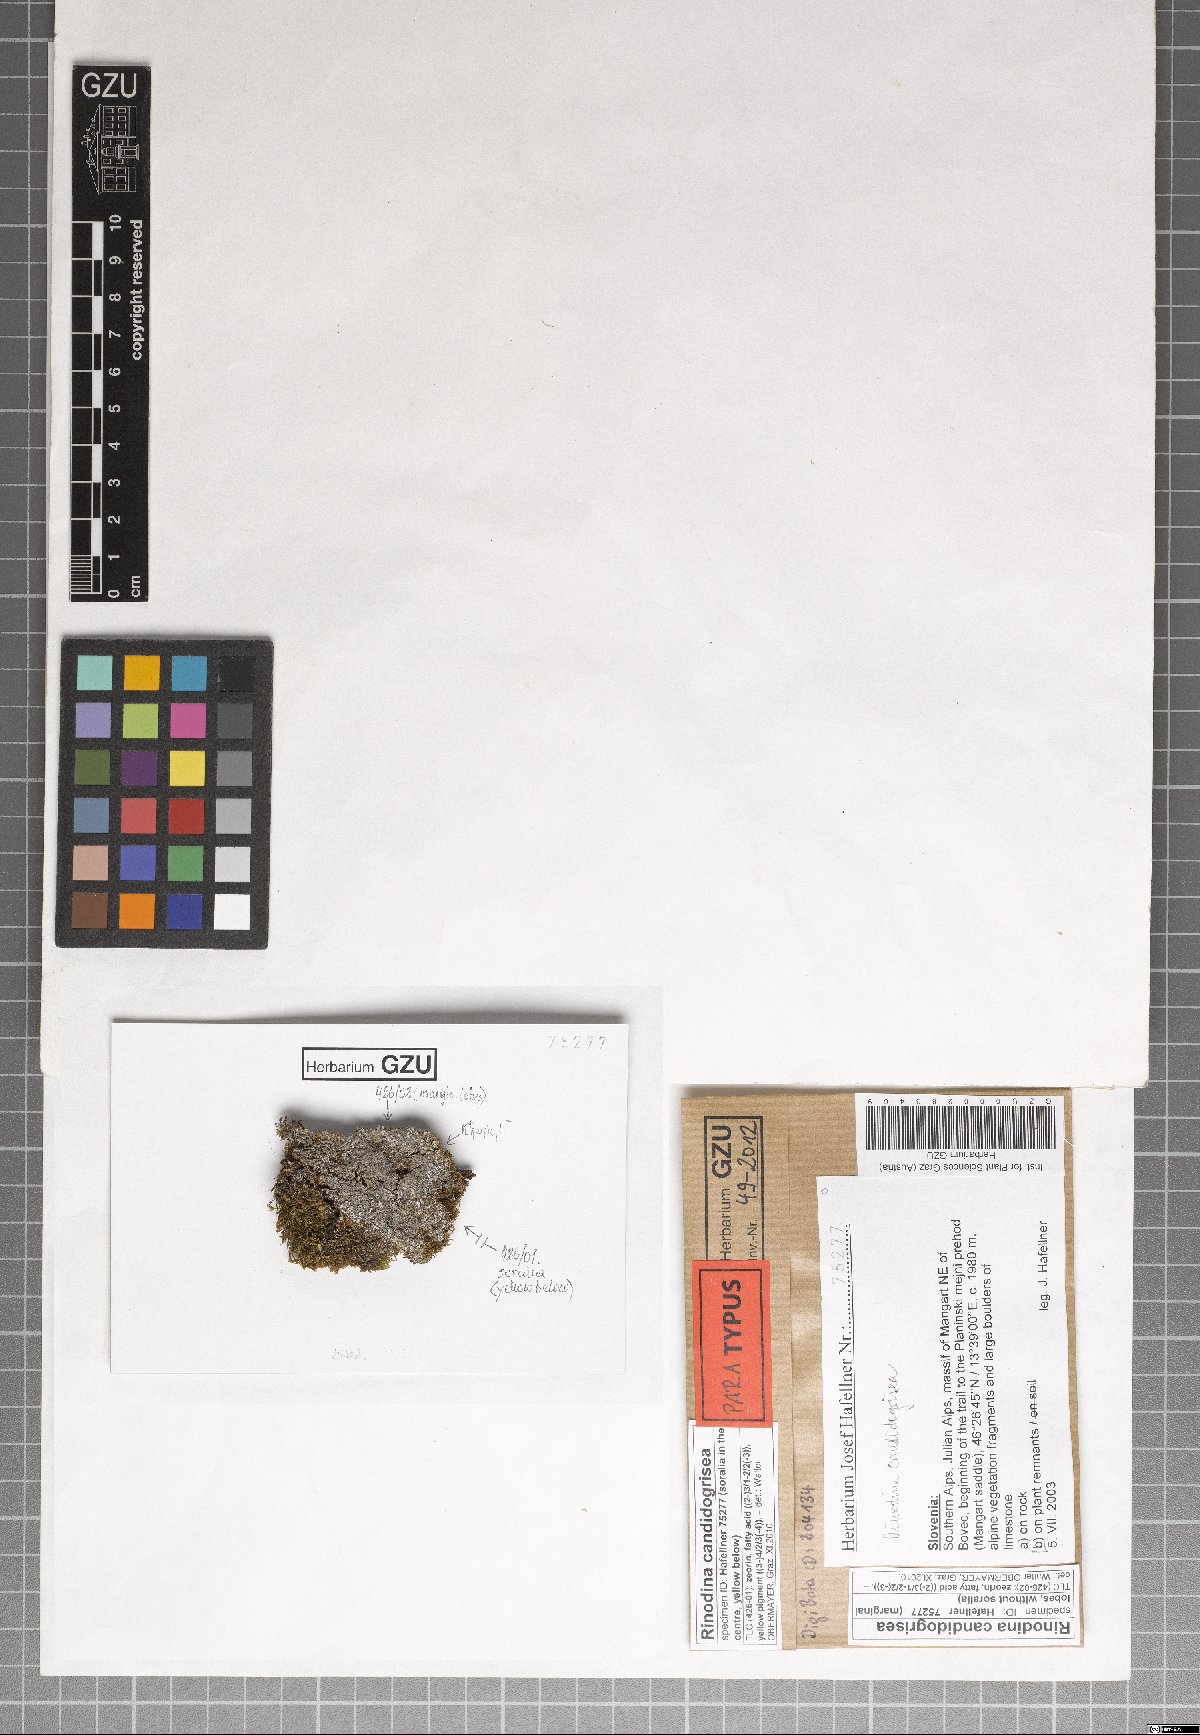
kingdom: Fungi
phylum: Ascomycota
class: Lecanoromycetes
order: Caliciales
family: Physciaceae
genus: Kudratovia
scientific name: Kudratovia candidogrisea
